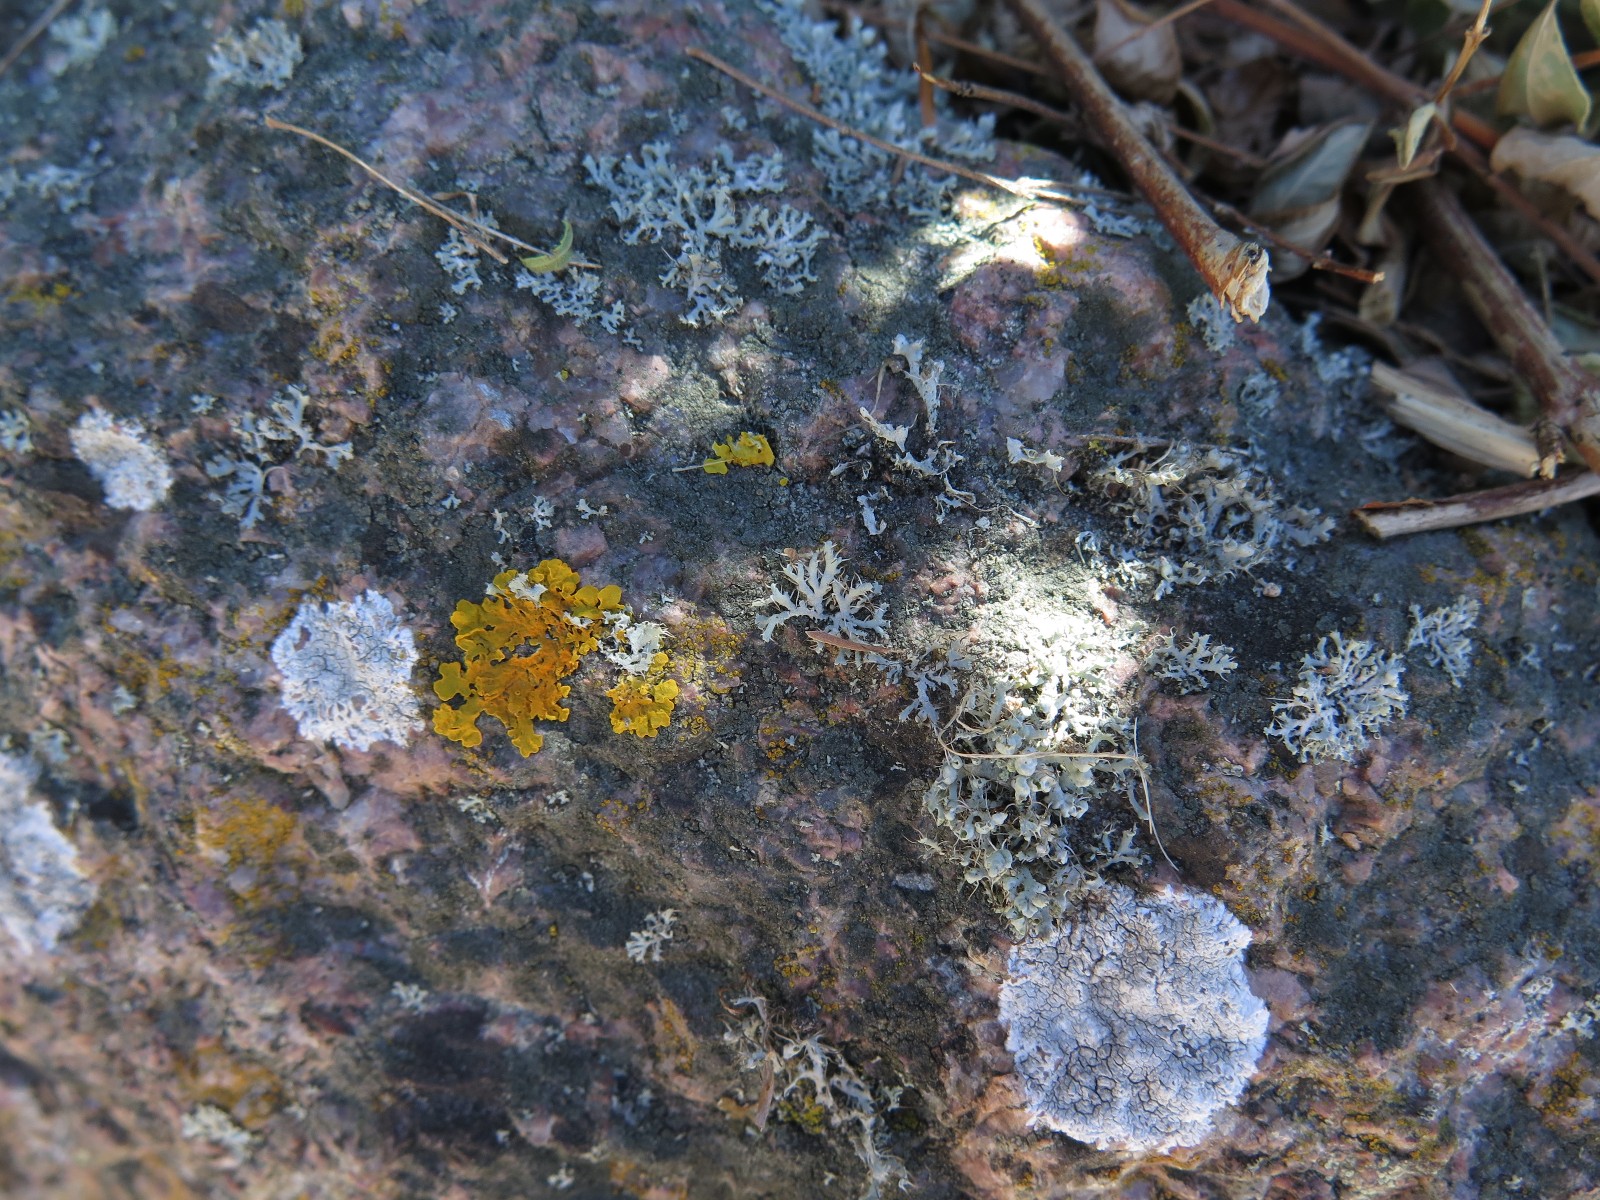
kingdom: Fungi
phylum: Ascomycota
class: Lecanoromycetes
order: Caliciales
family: Physciaceae
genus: Physcia
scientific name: Physcia tenella
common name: spæd rosetlav
